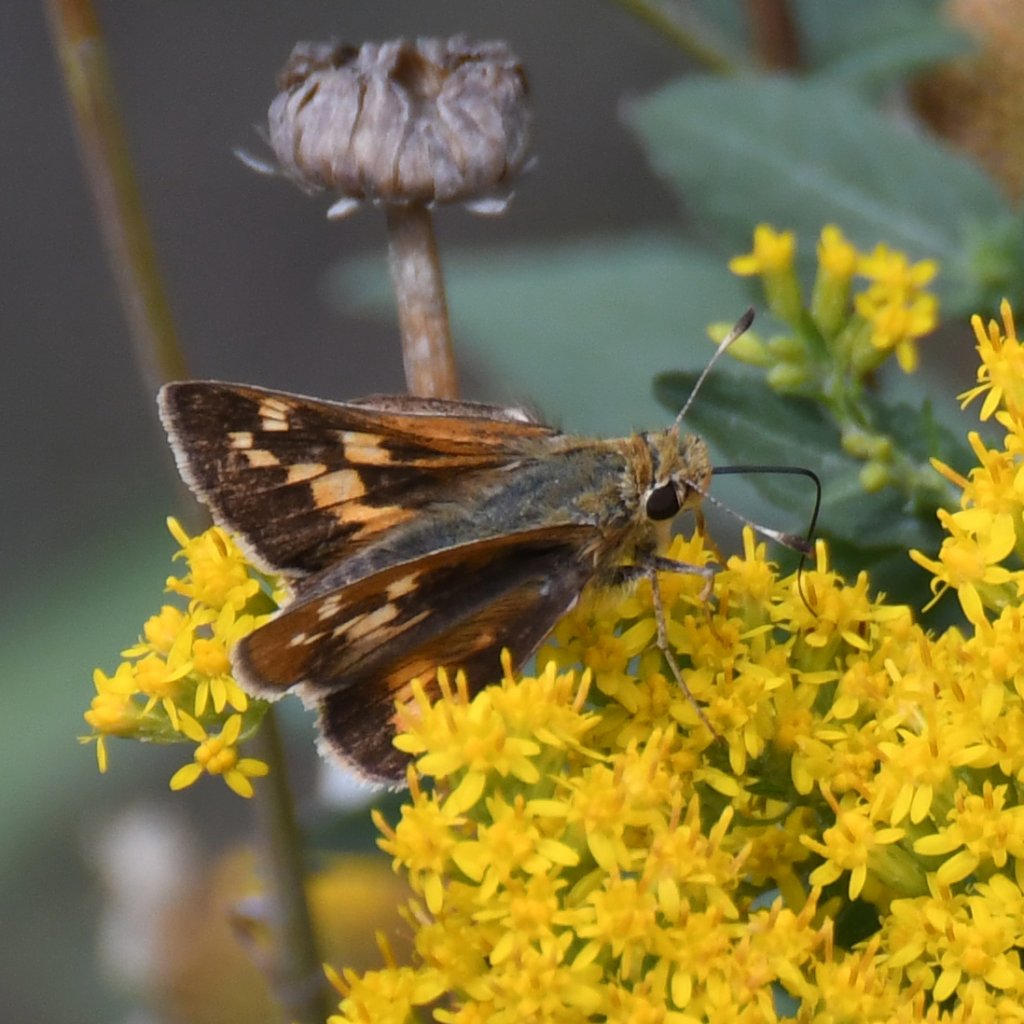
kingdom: Animalia
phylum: Arthropoda
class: Insecta
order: Lepidoptera
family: Hesperiidae
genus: Hesperia
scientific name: Hesperia leonardus
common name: Leonard's Skipper
